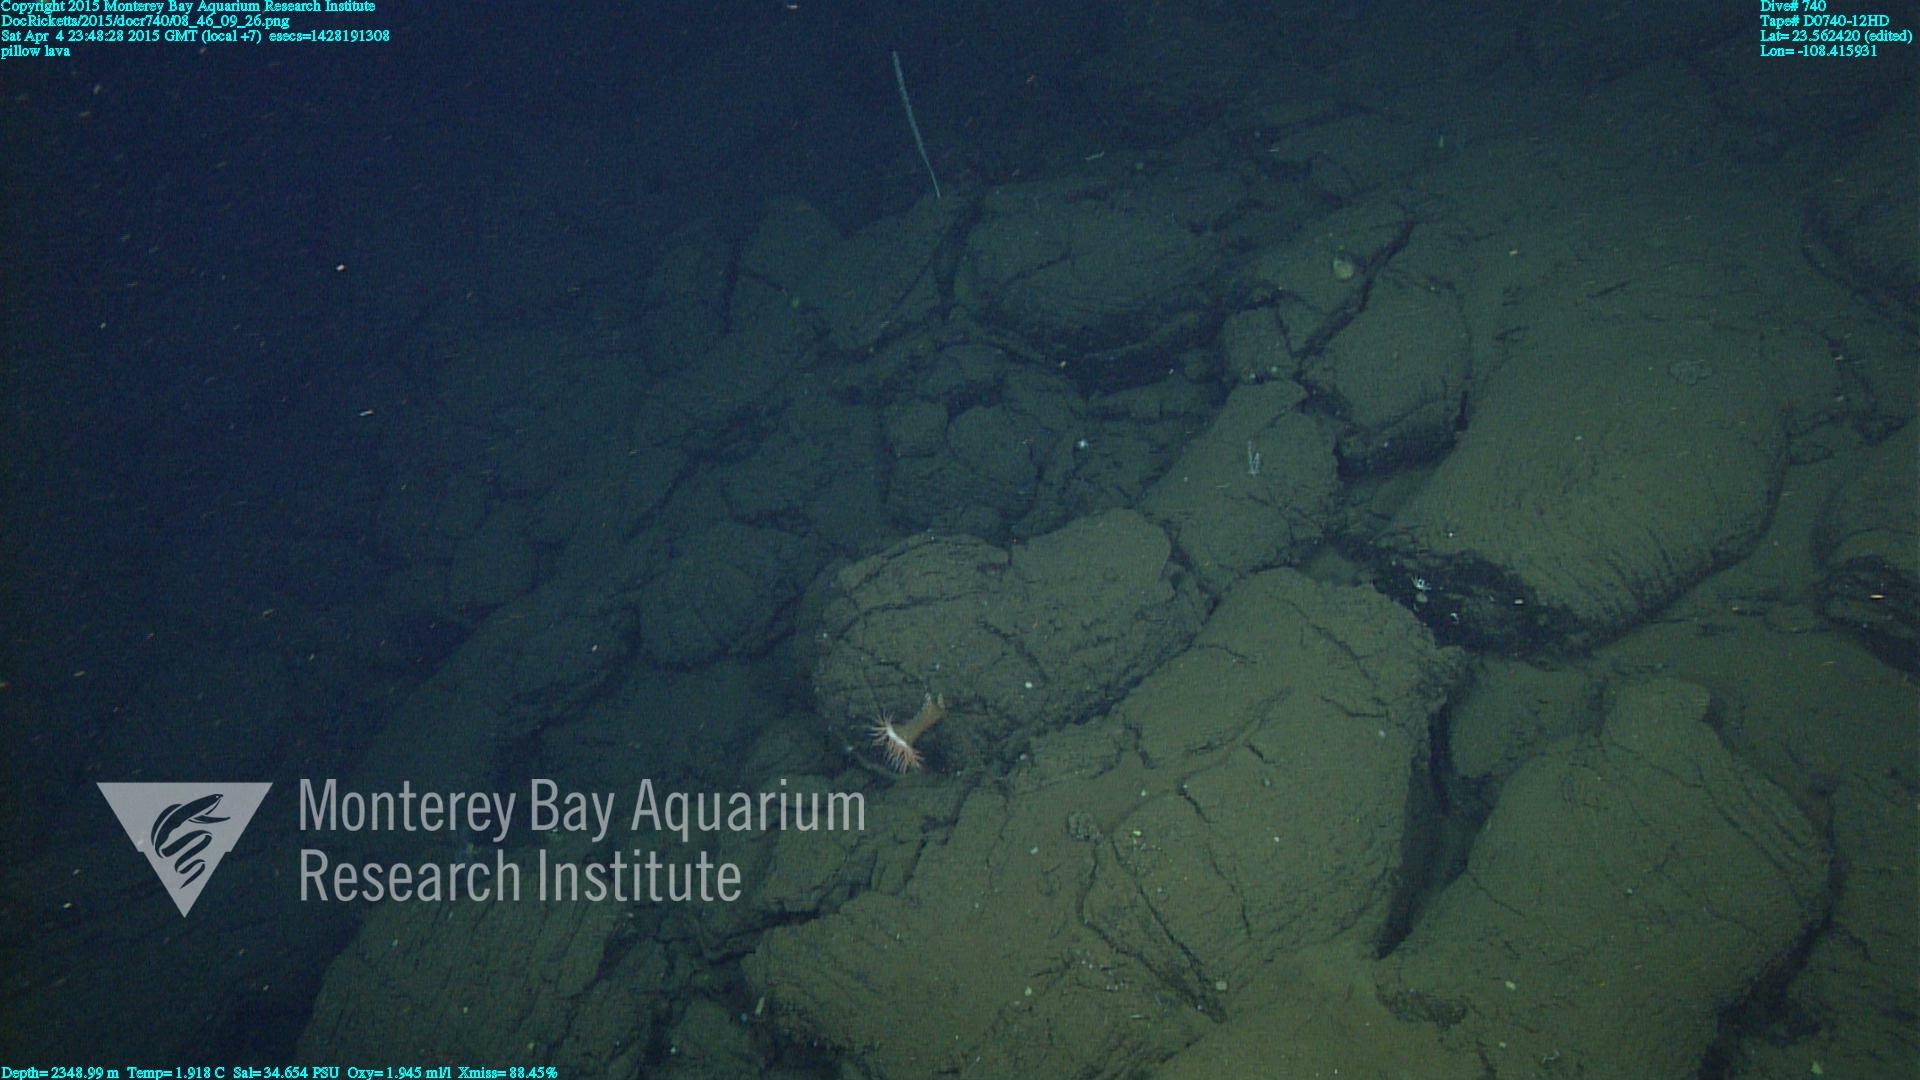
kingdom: Animalia
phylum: Cnidaria
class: Anthozoa
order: Scleralcyonacea
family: Keratoisididae
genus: Lepidisis
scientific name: Lepidisis
